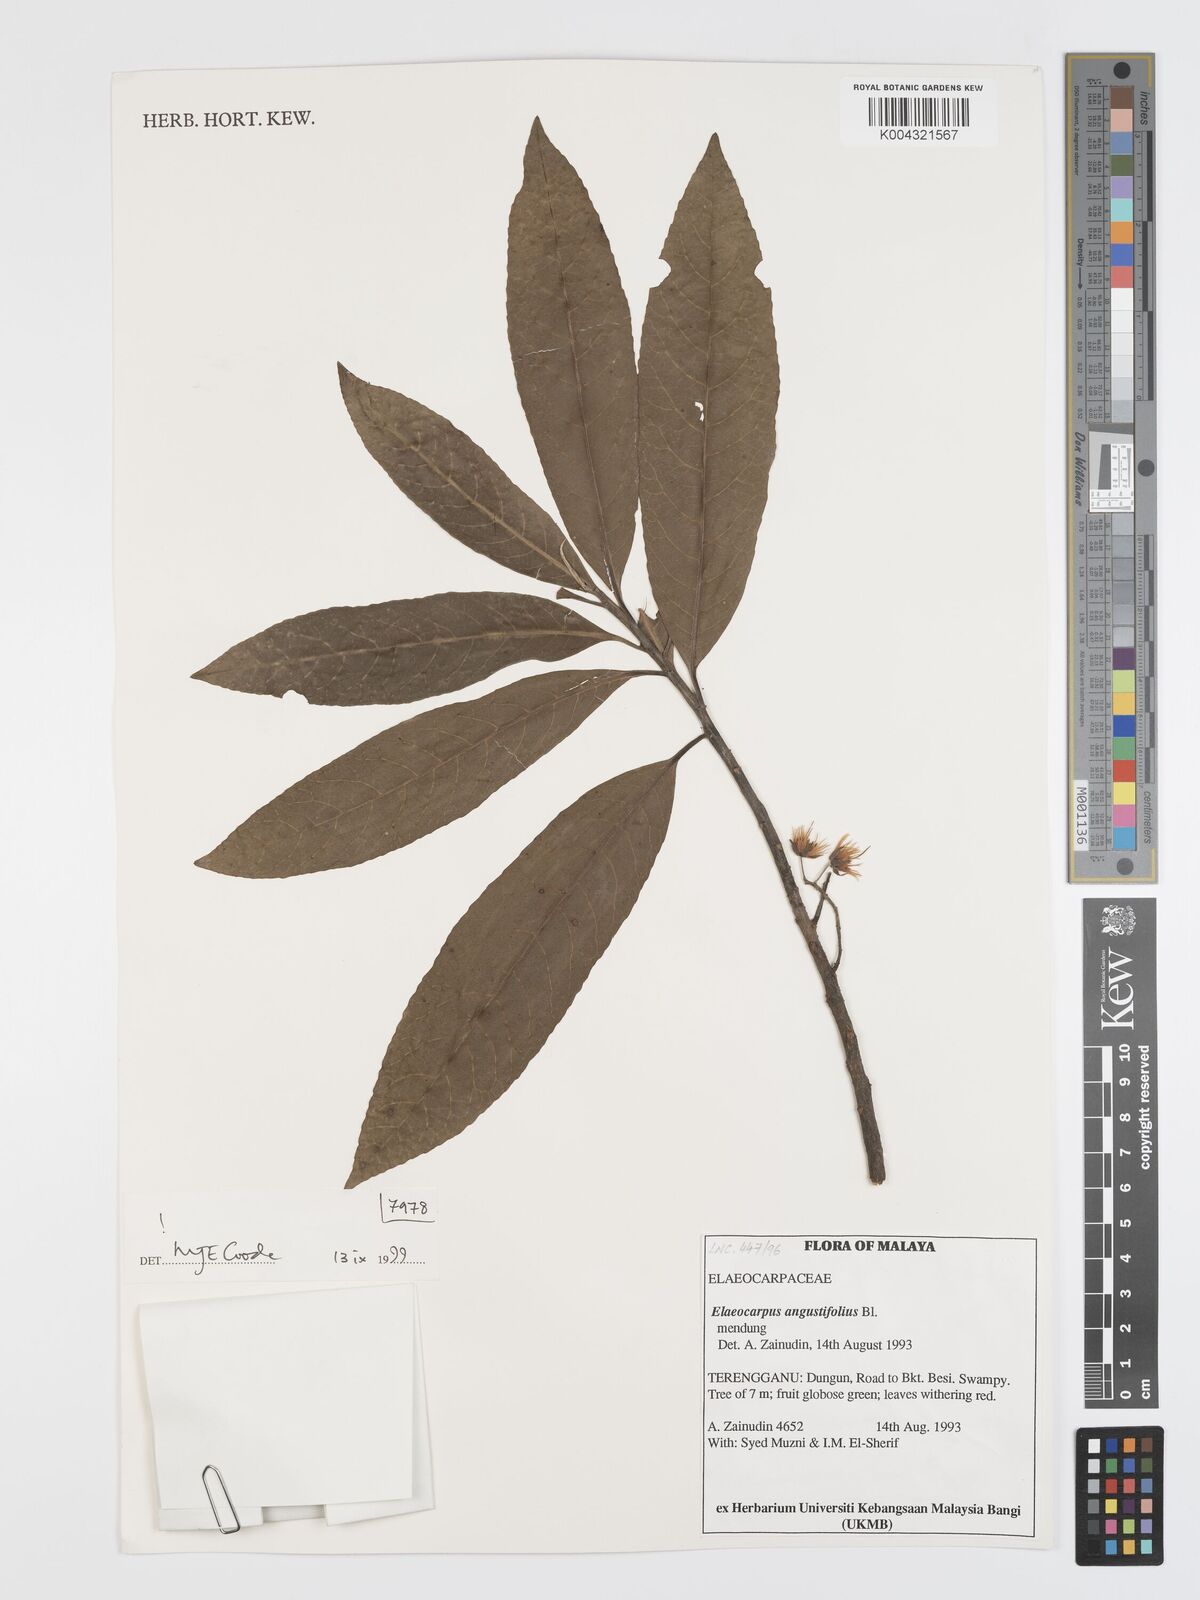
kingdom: Plantae
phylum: Tracheophyta
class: Magnoliopsida
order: Oxalidales
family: Elaeocarpaceae
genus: Elaeocarpus
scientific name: Elaeocarpus
